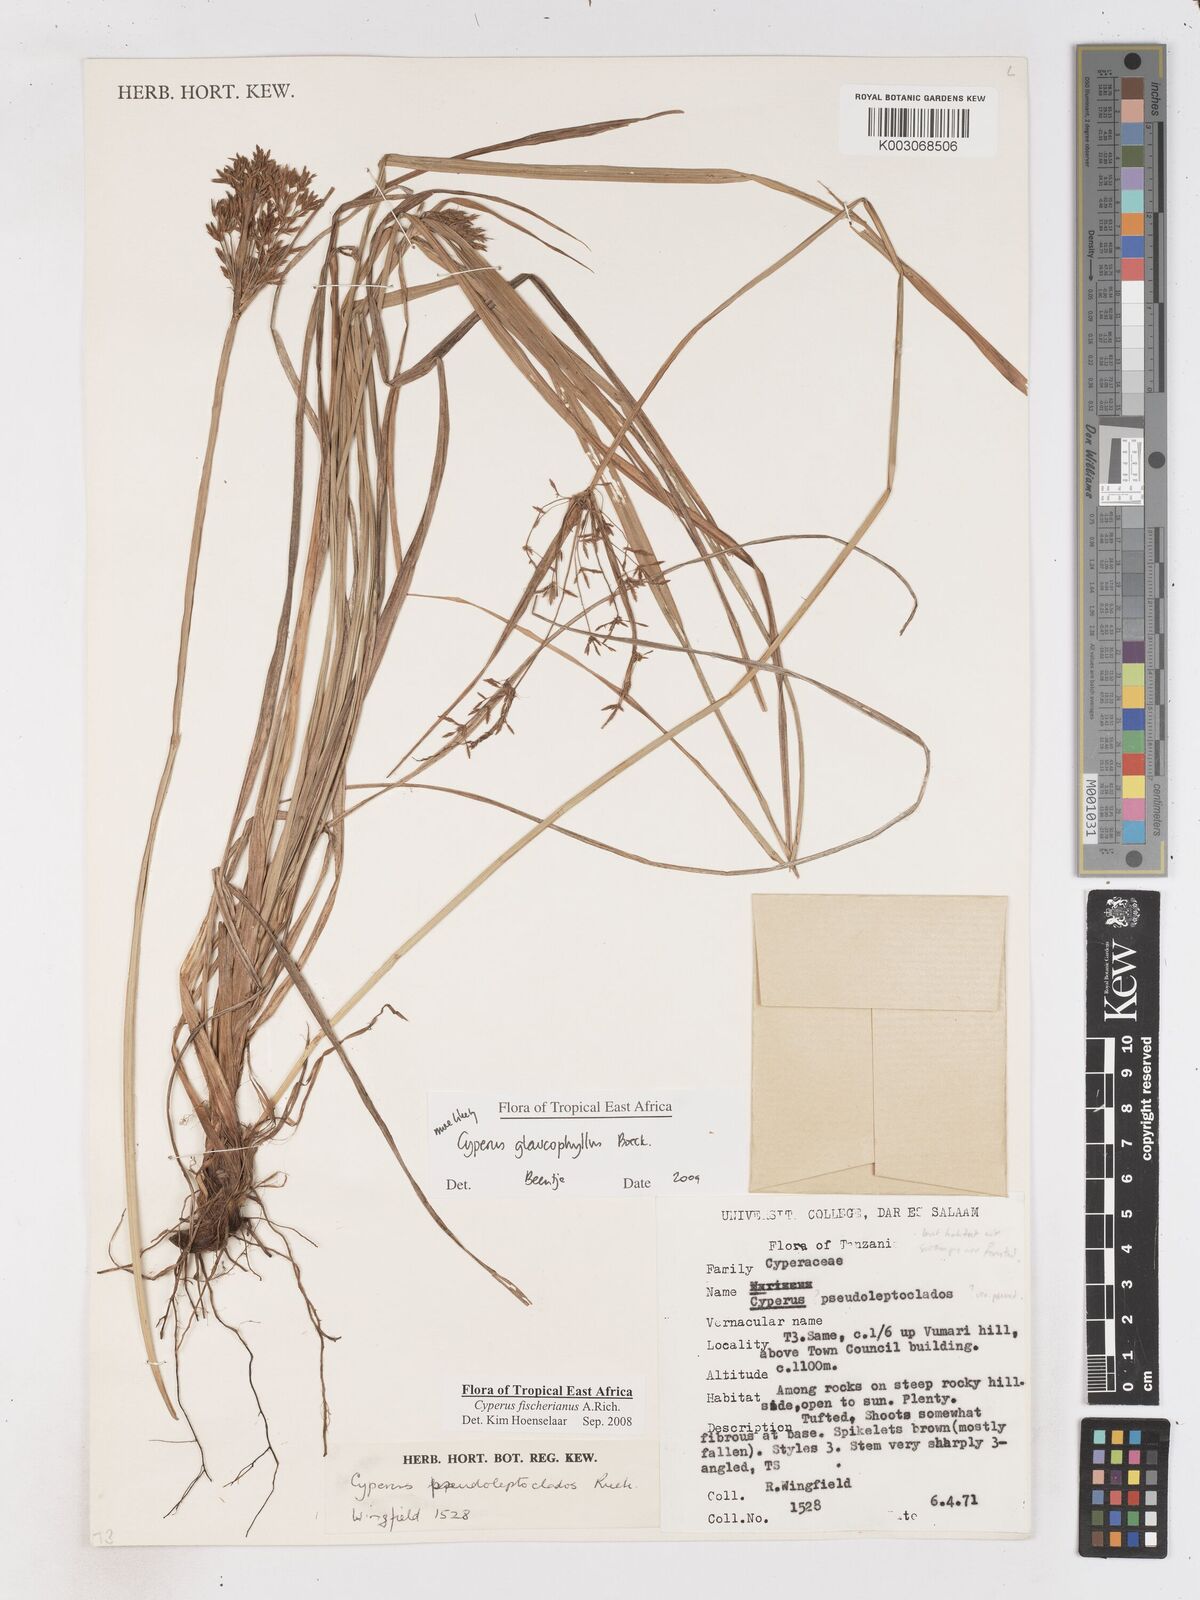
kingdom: Plantae
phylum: Tracheophyta
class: Liliopsida
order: Poales
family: Cyperaceae
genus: Cyperus
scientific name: Cyperus glaucophyllus
